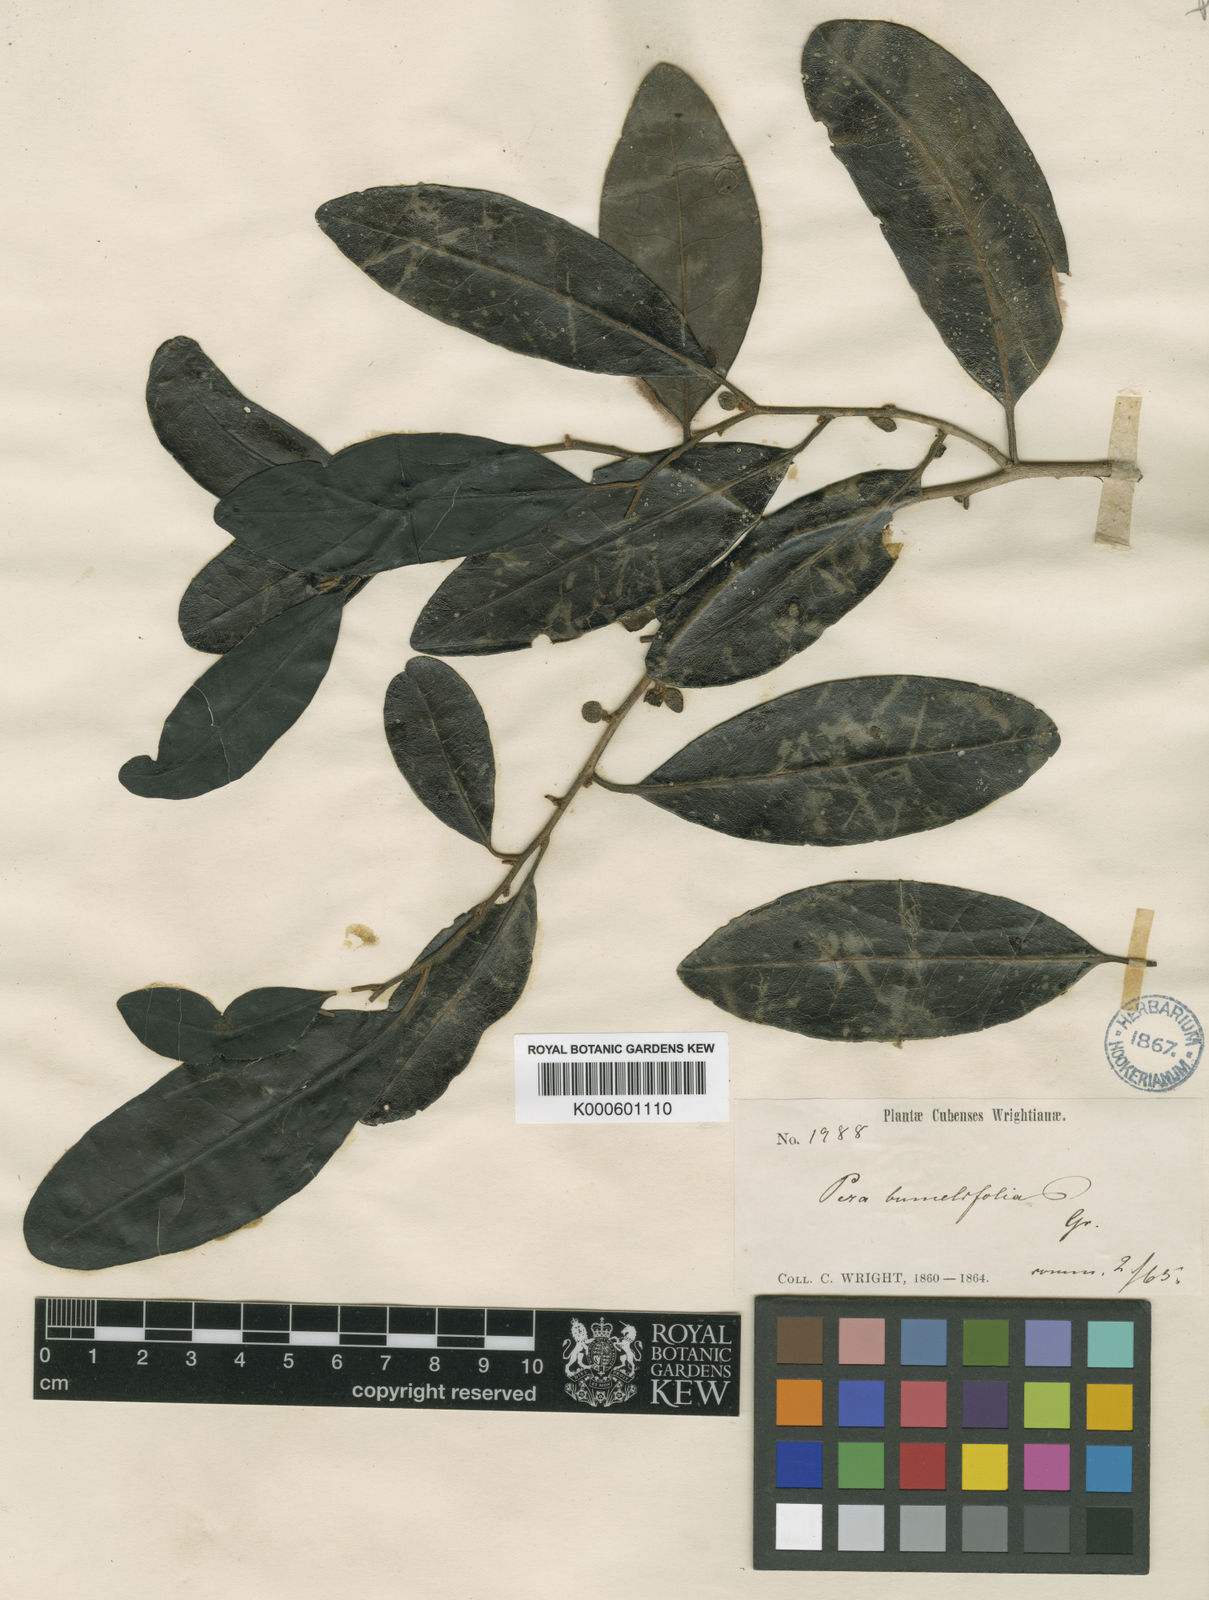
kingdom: Plantae
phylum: Tracheophyta
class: Magnoliopsida
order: Malpighiales
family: Peraceae
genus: Pera
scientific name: Pera bumeliifolia
